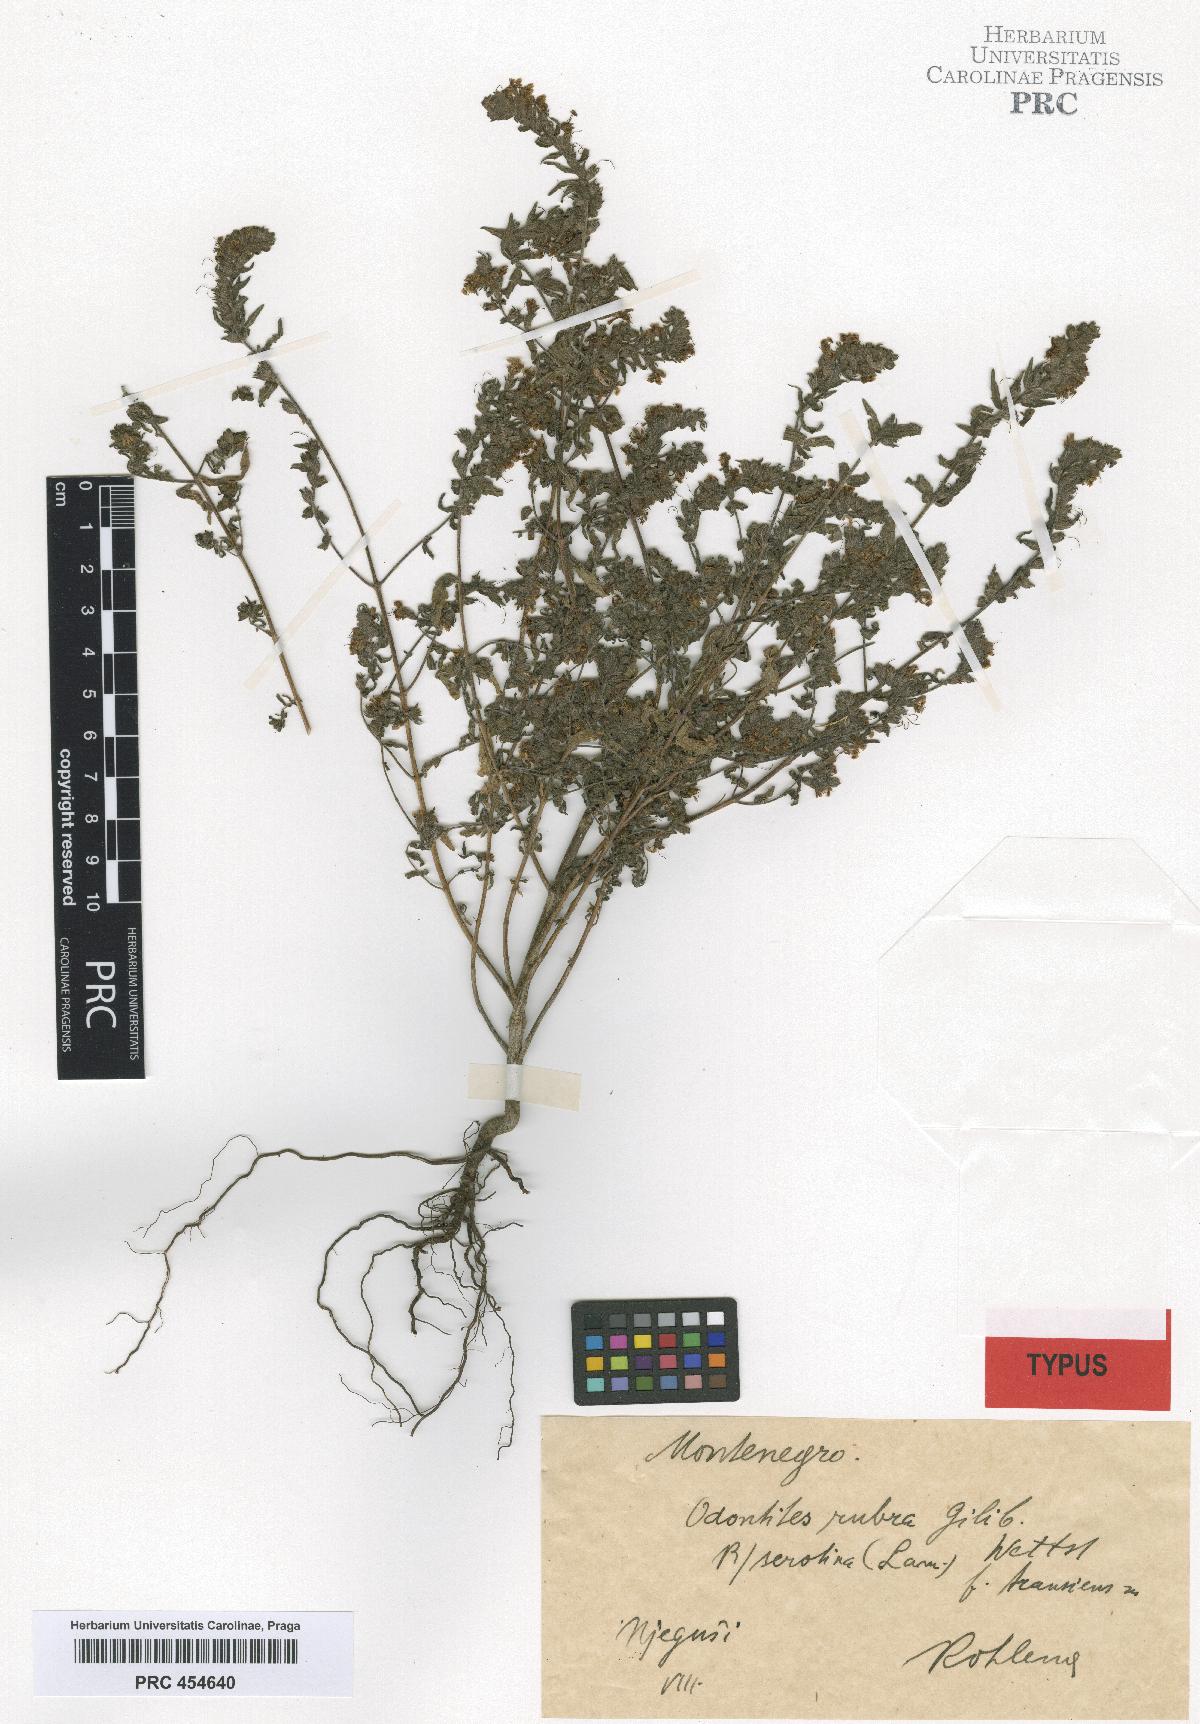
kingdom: Plantae
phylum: Tracheophyta
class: Magnoliopsida
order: Lamiales
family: Orobanchaceae
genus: Odontites
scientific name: Odontites vulgaris
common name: Broomrape
